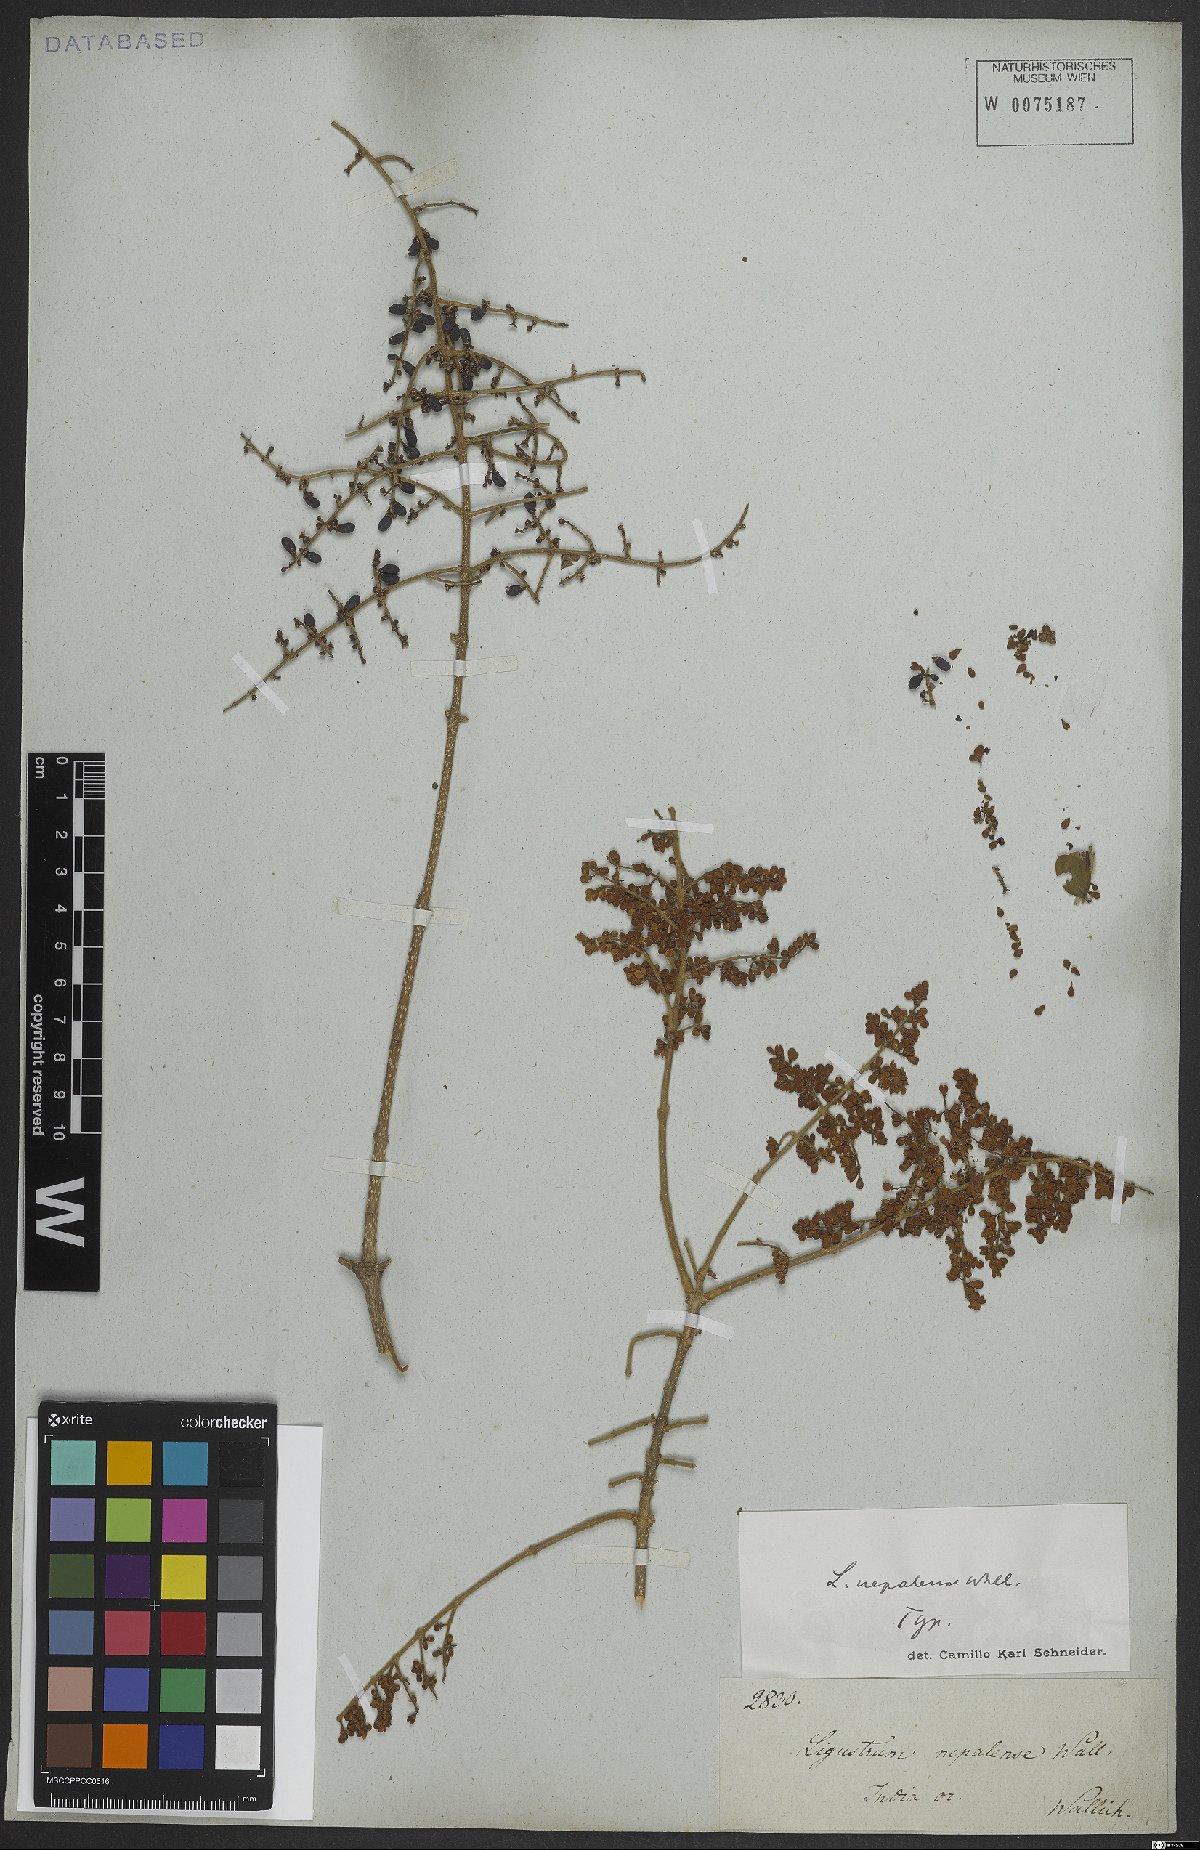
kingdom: Plantae
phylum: Tracheophyta
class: Magnoliopsida
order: Lamiales
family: Oleaceae
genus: Ligustrum
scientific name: Ligustrum nepalense
